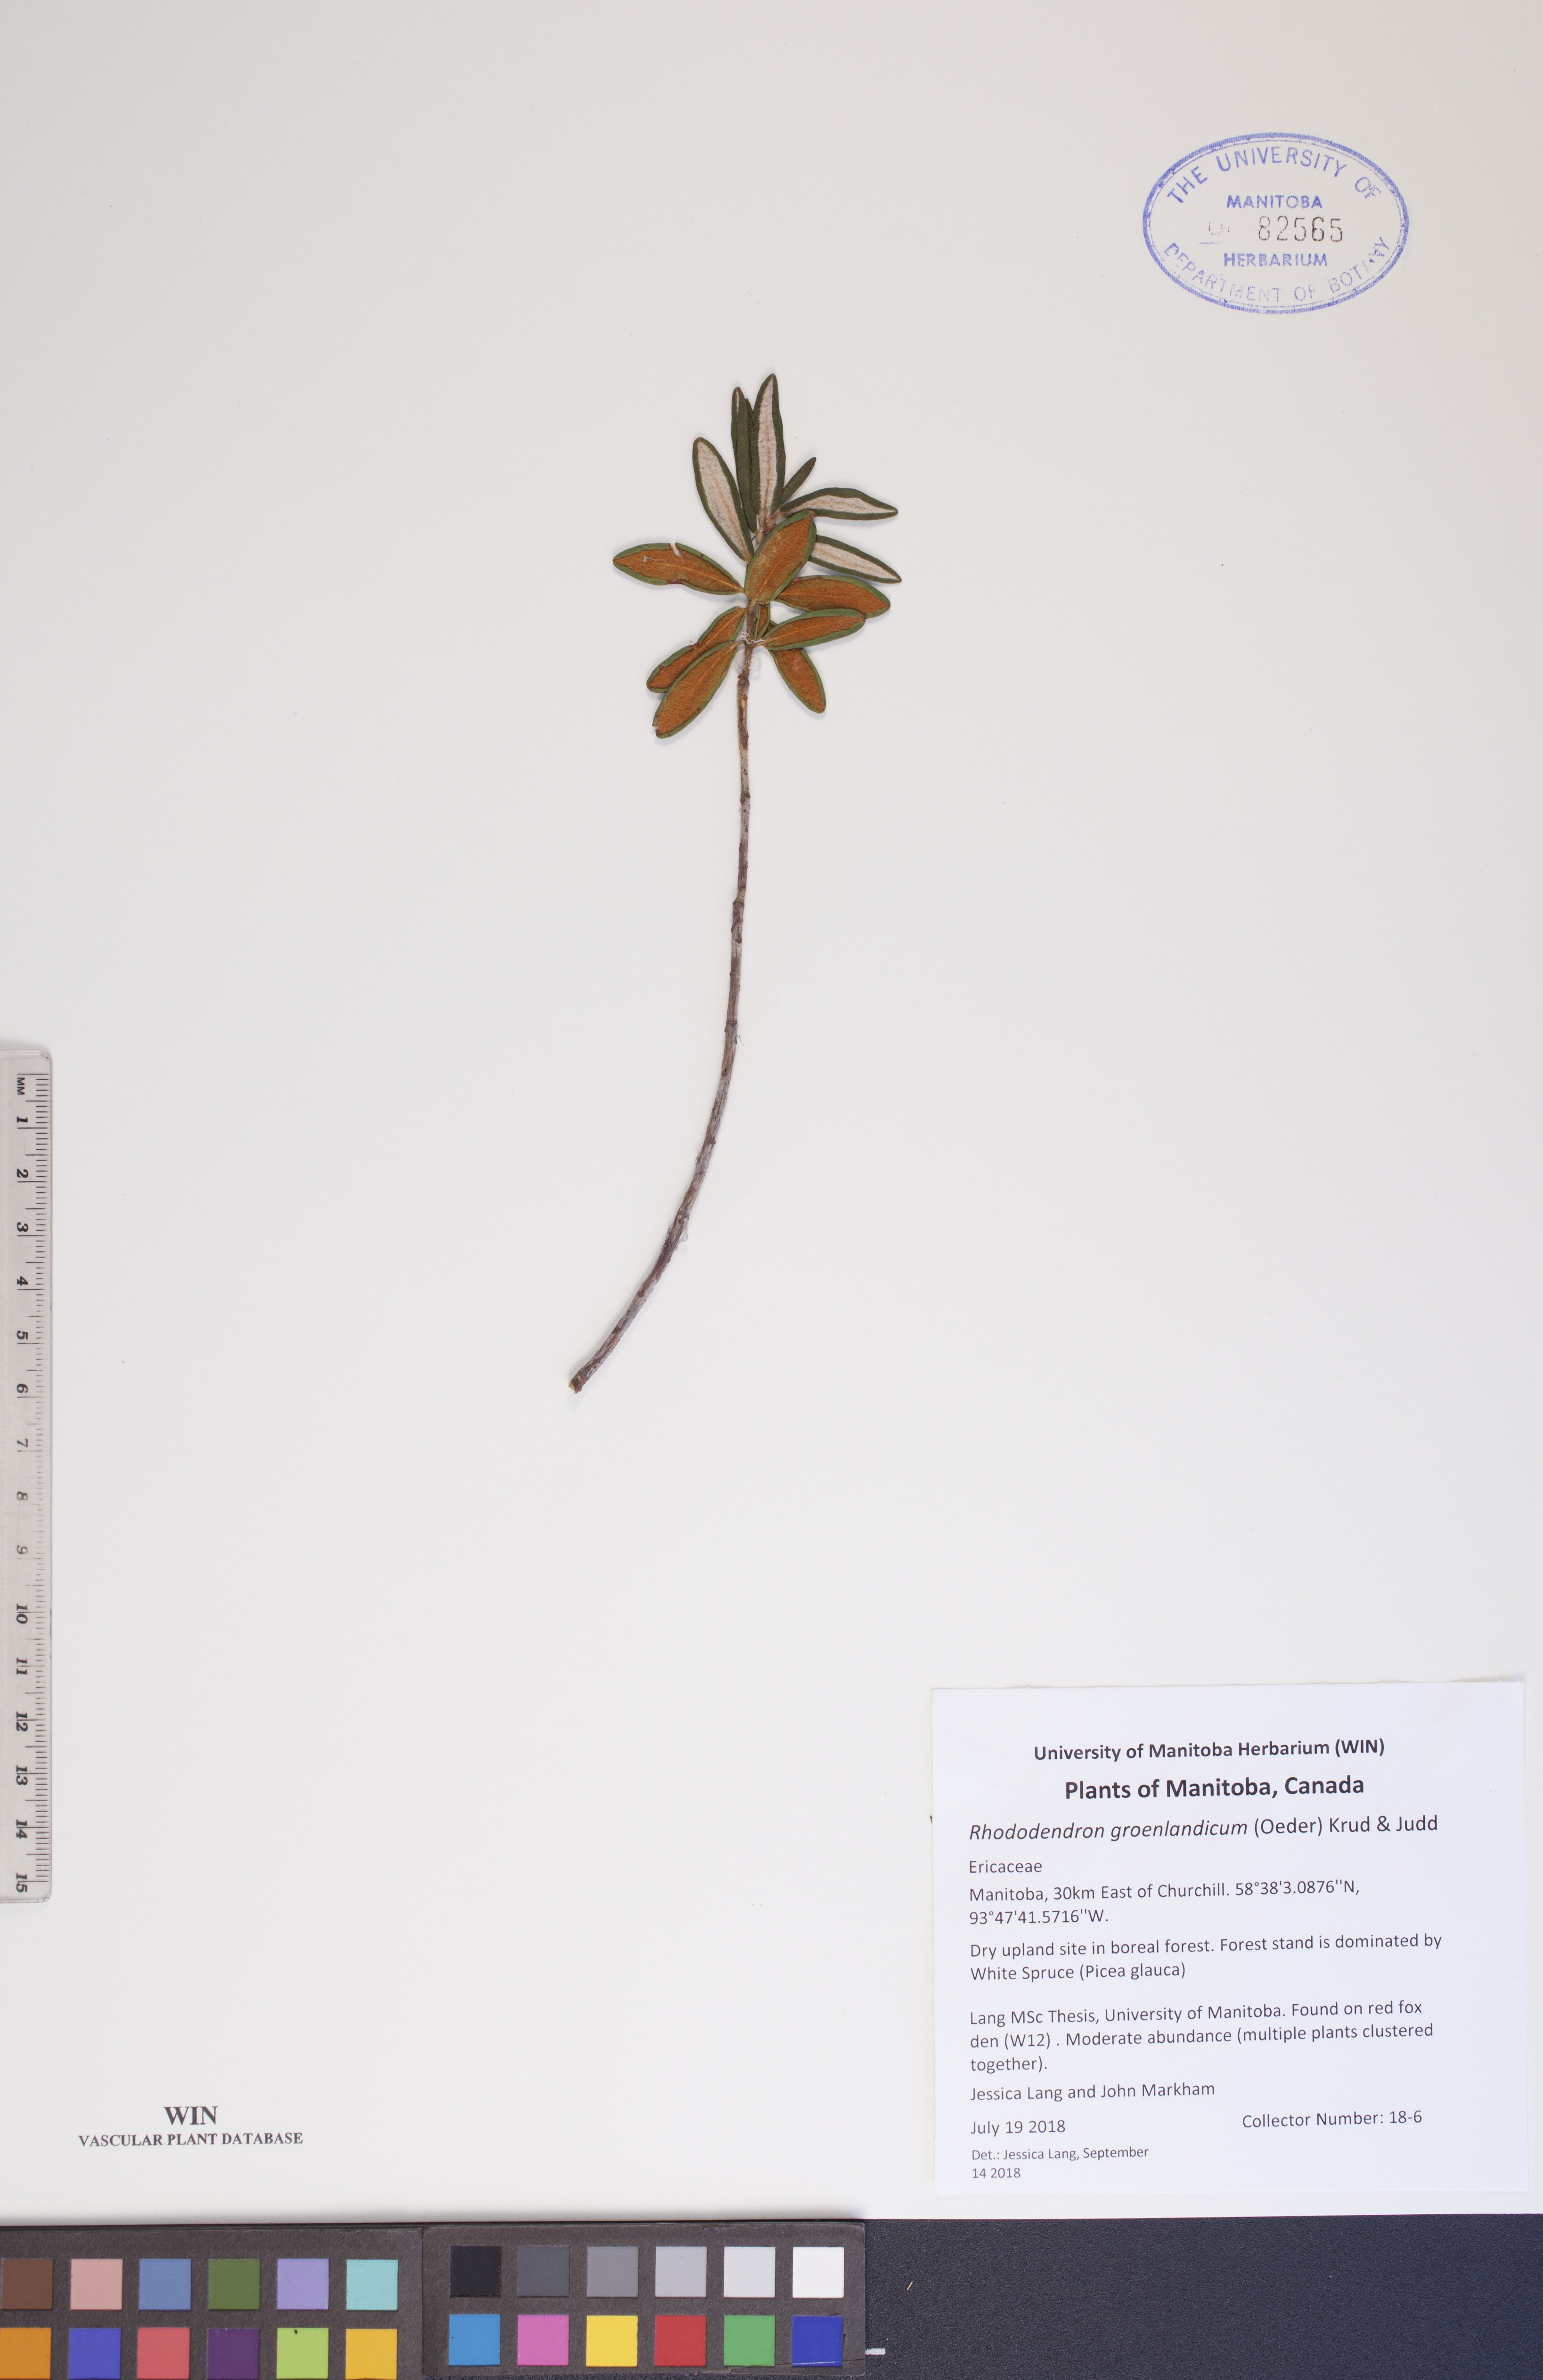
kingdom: Plantae
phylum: Tracheophyta
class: Magnoliopsida
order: Ericales
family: Ericaceae
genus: Rhododendron
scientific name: Rhododendron groenlandicum
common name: Bog labrador tea
